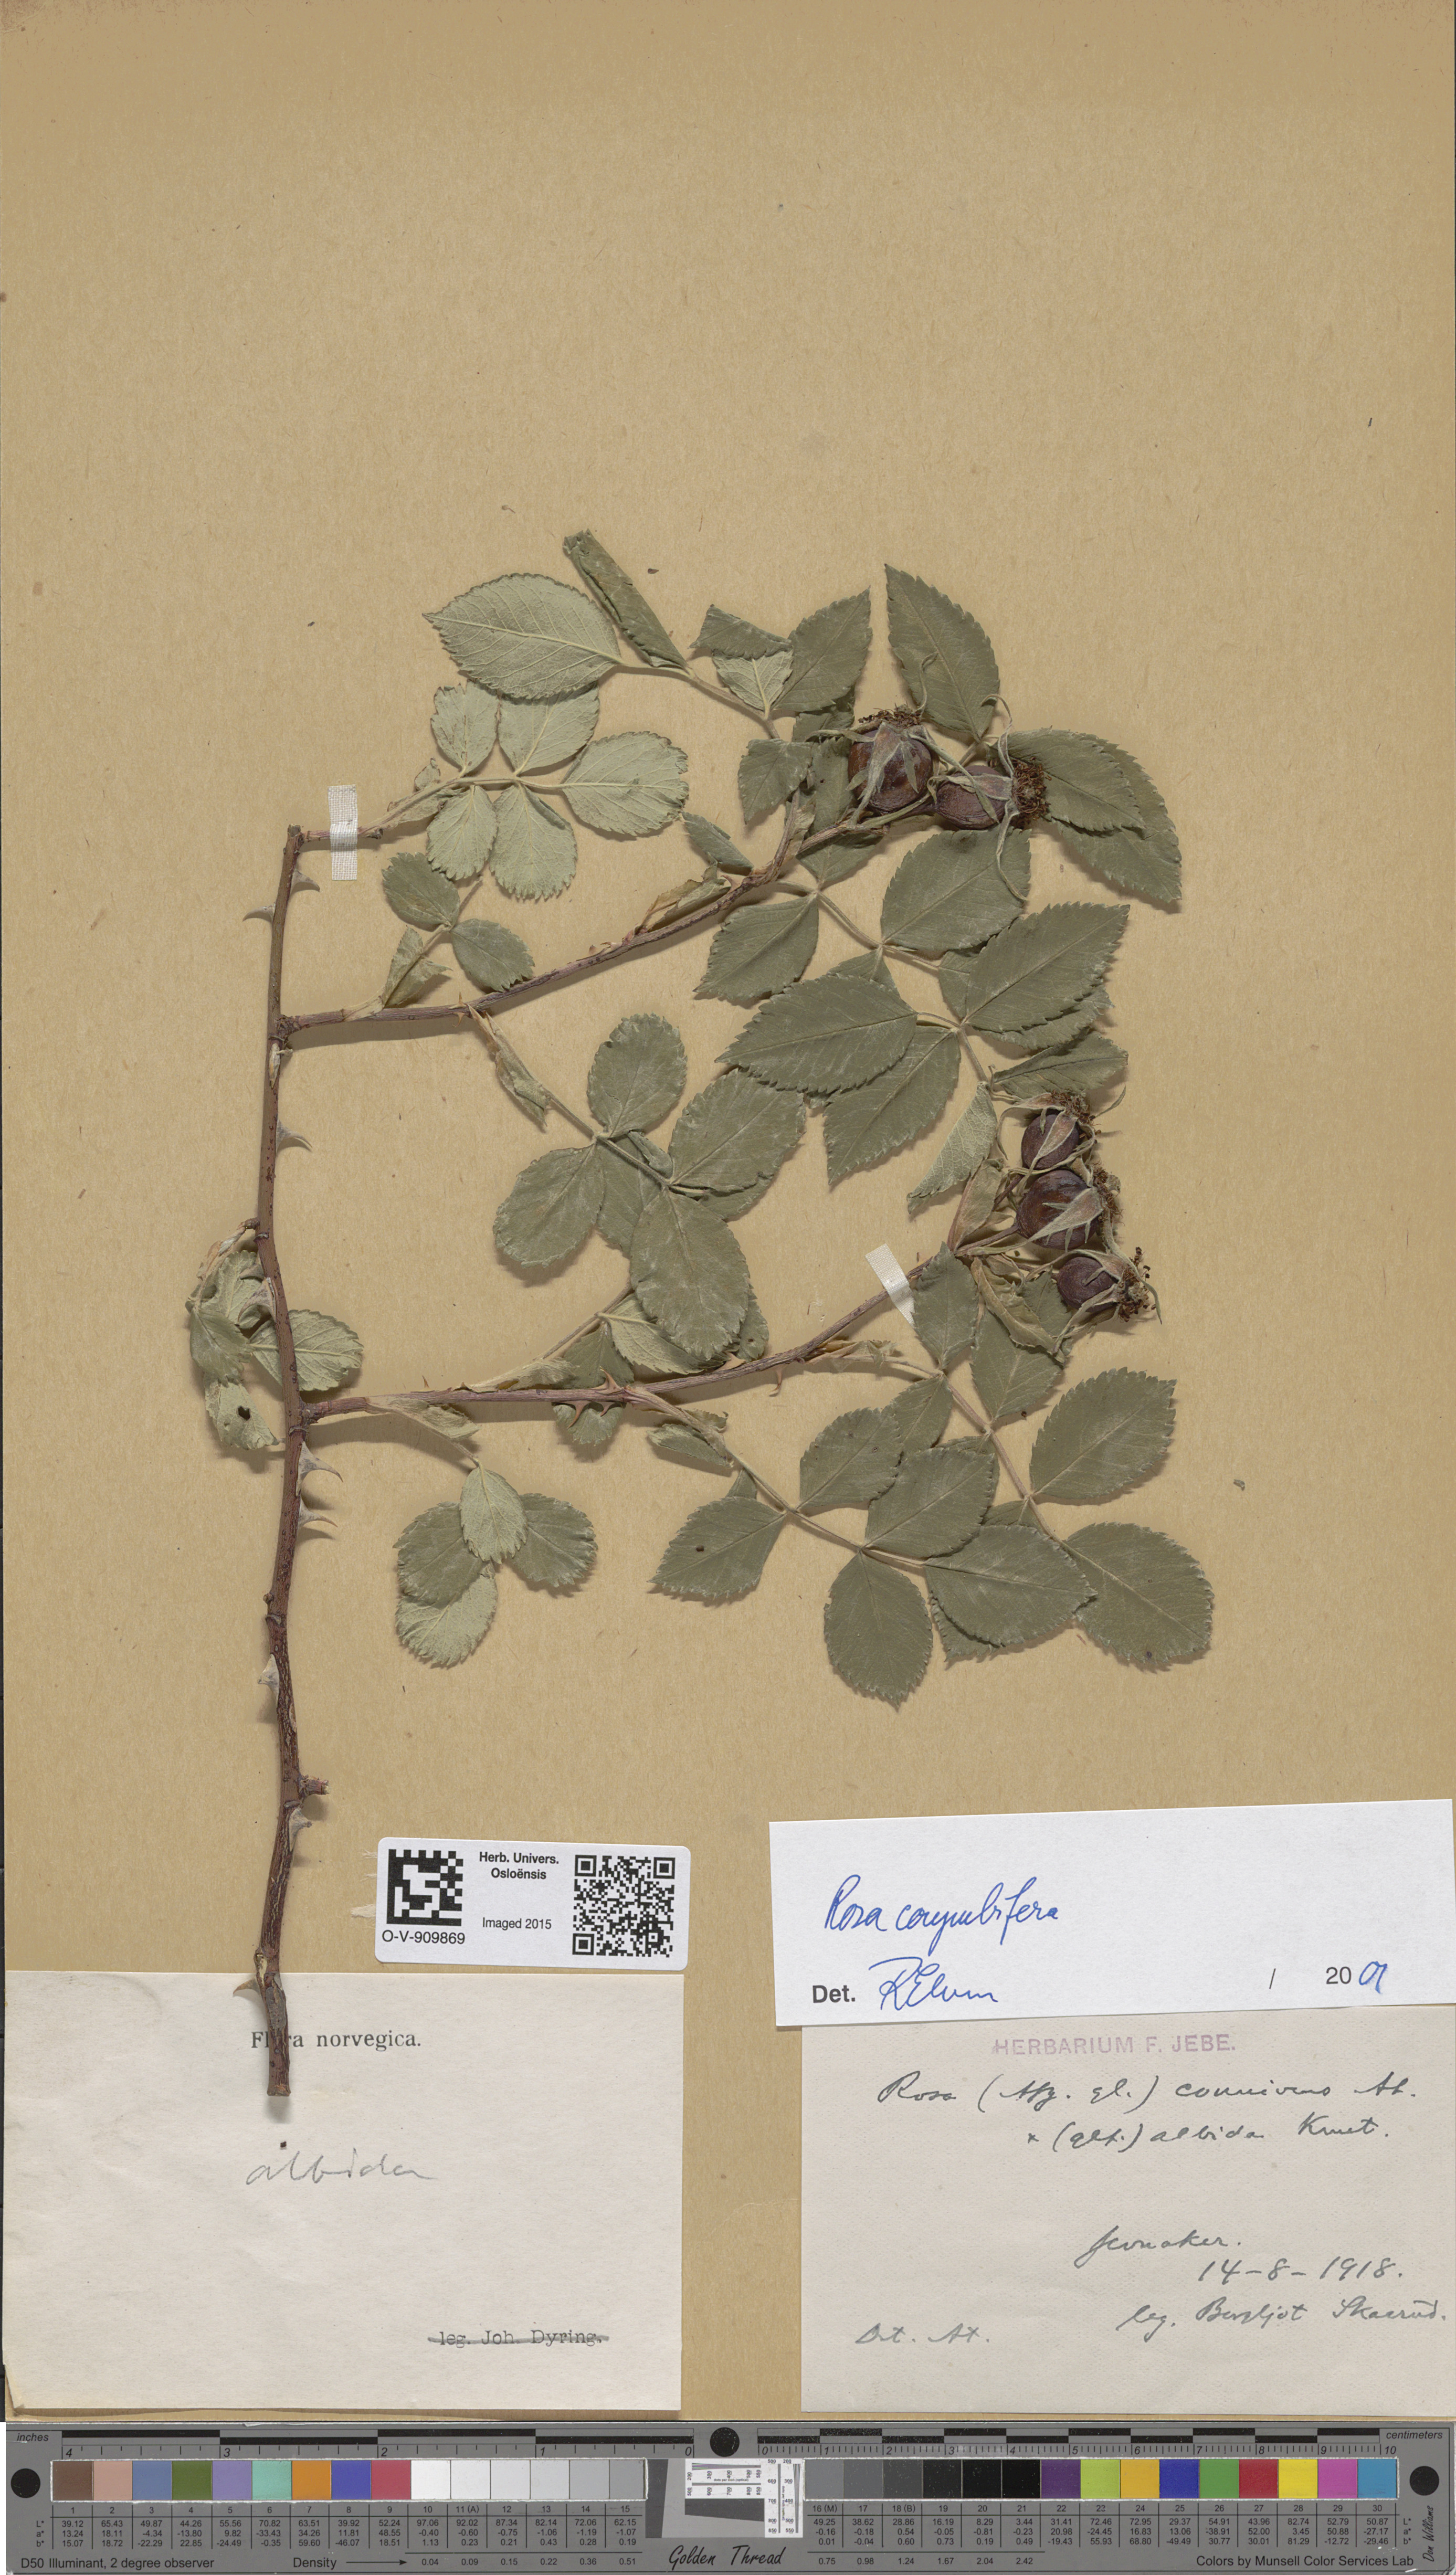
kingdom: Plantae
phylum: Tracheophyta
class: Magnoliopsida
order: Rosales
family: Rosaceae
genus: Rosa
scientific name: Rosa corymbifera
